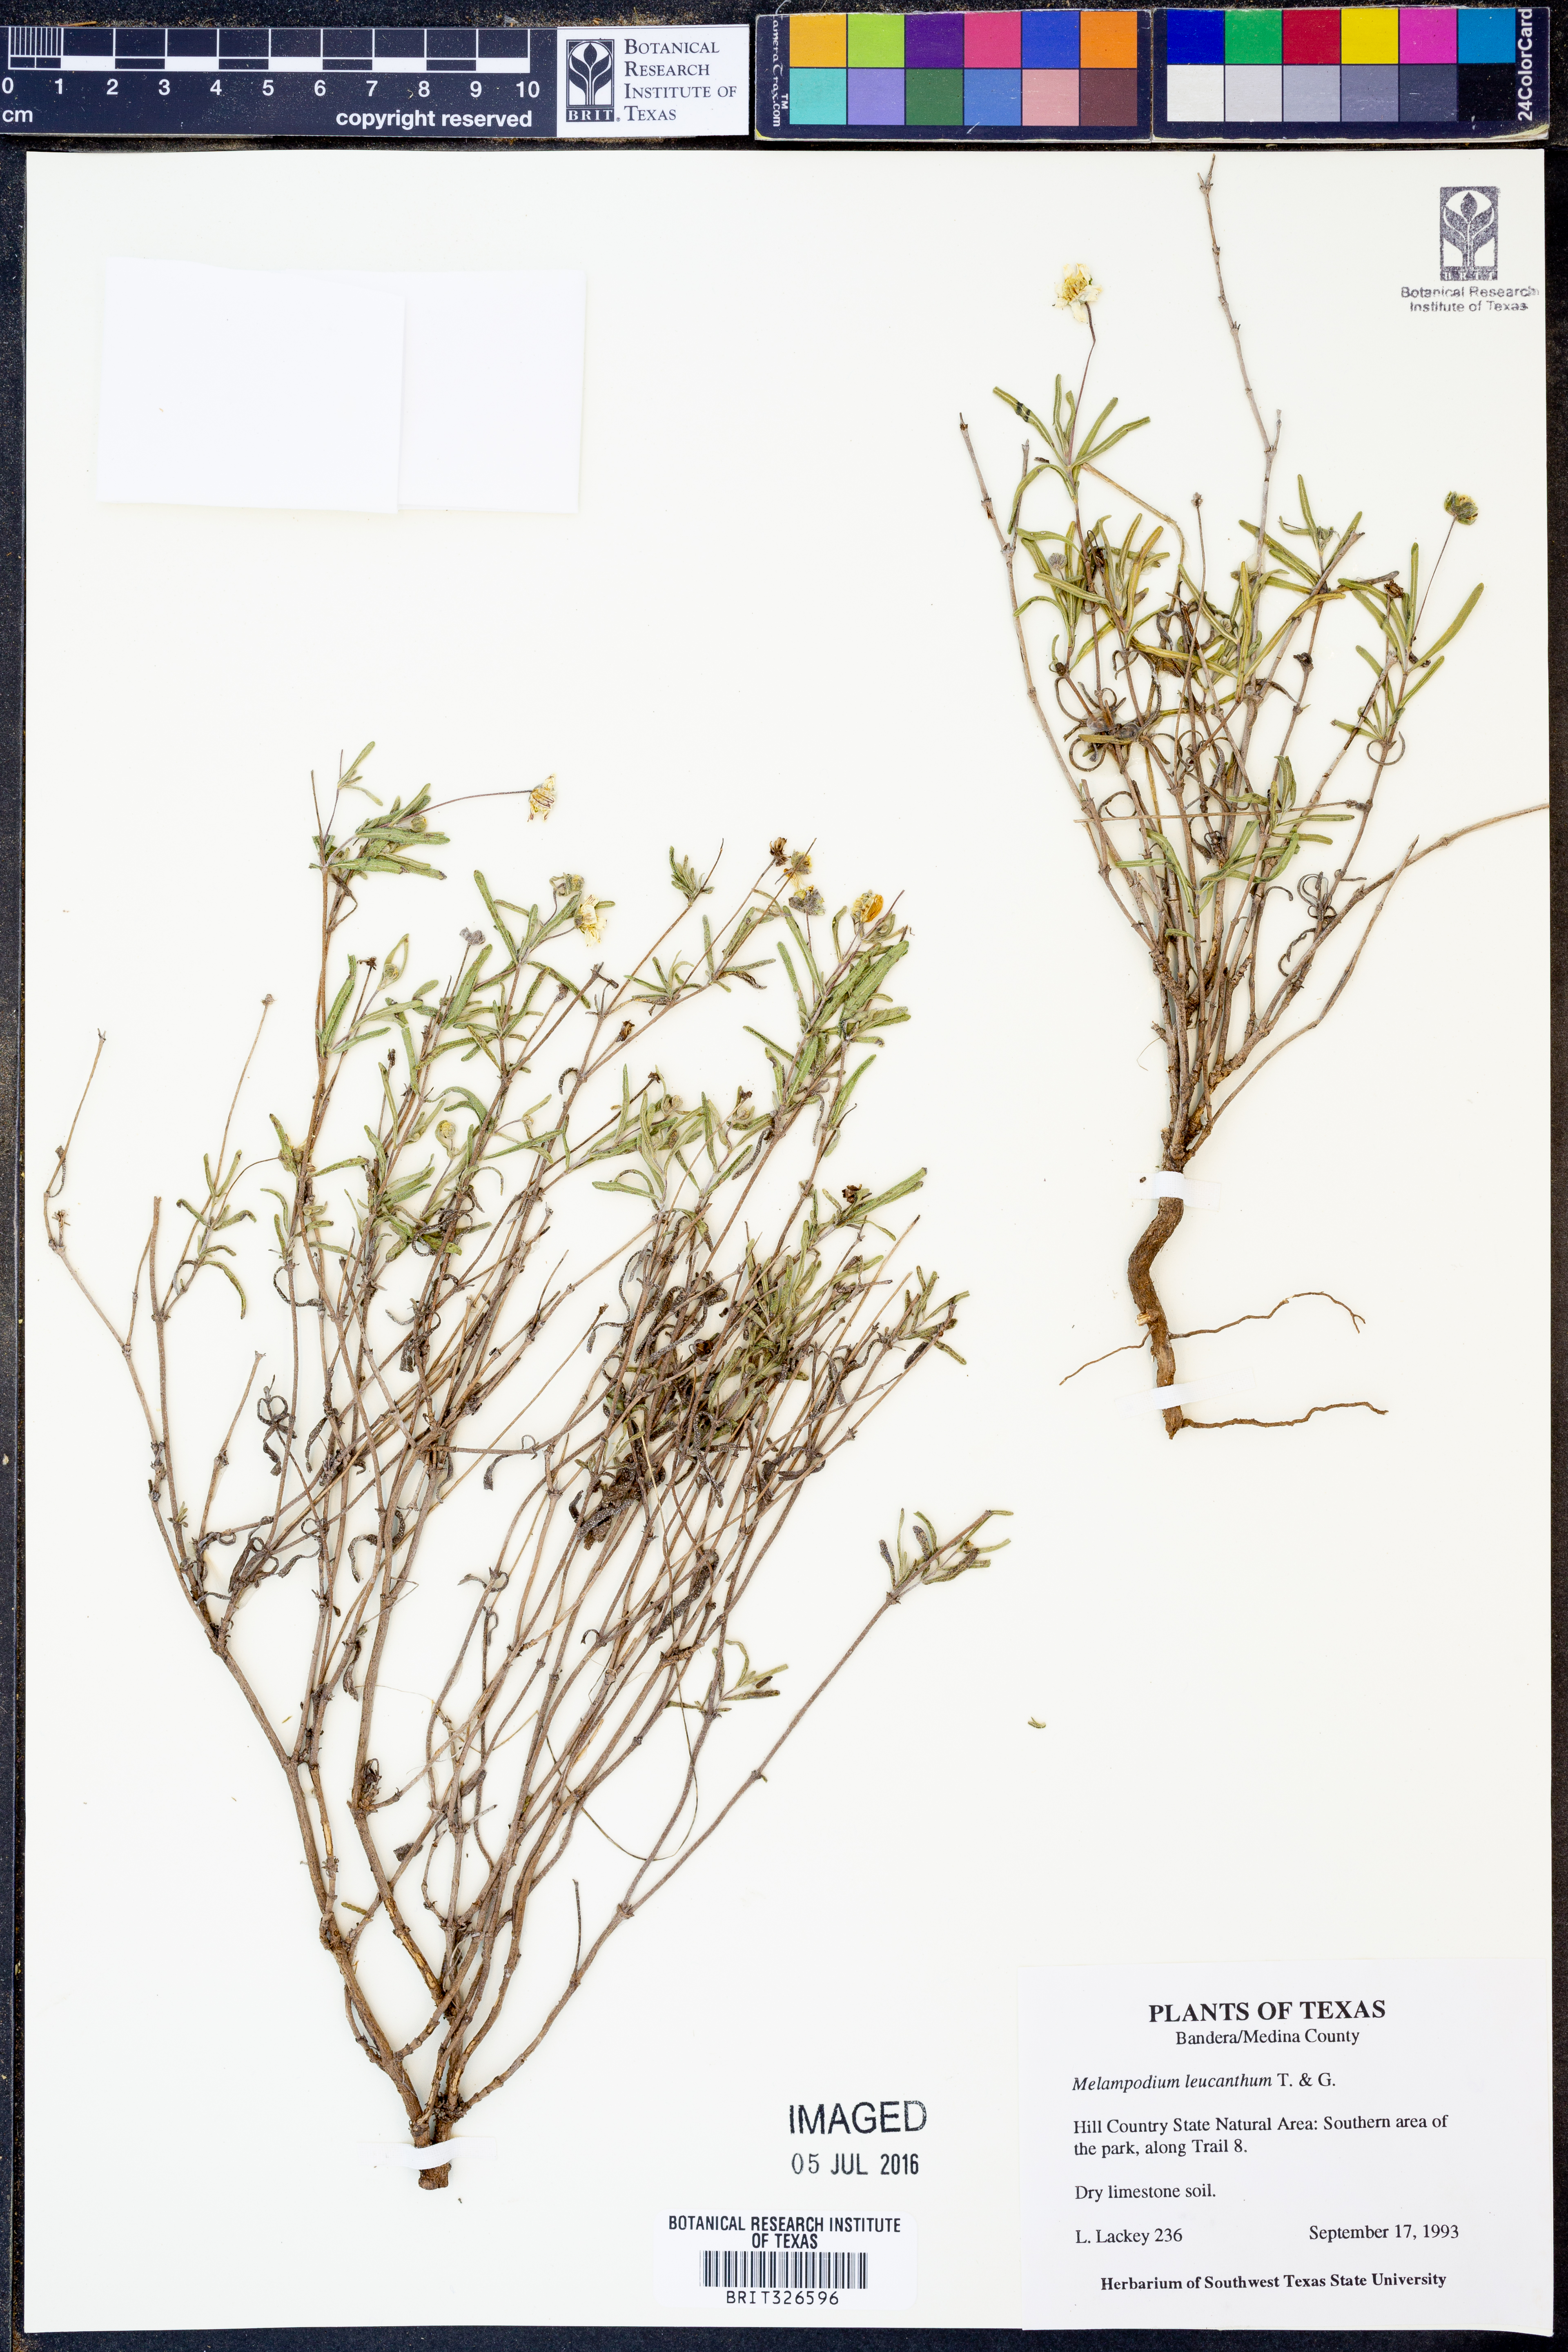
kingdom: Plantae
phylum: Tracheophyta
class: Magnoliopsida
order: Asterales
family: Asteraceae
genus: Melampodium
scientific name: Melampodium leucanthum
